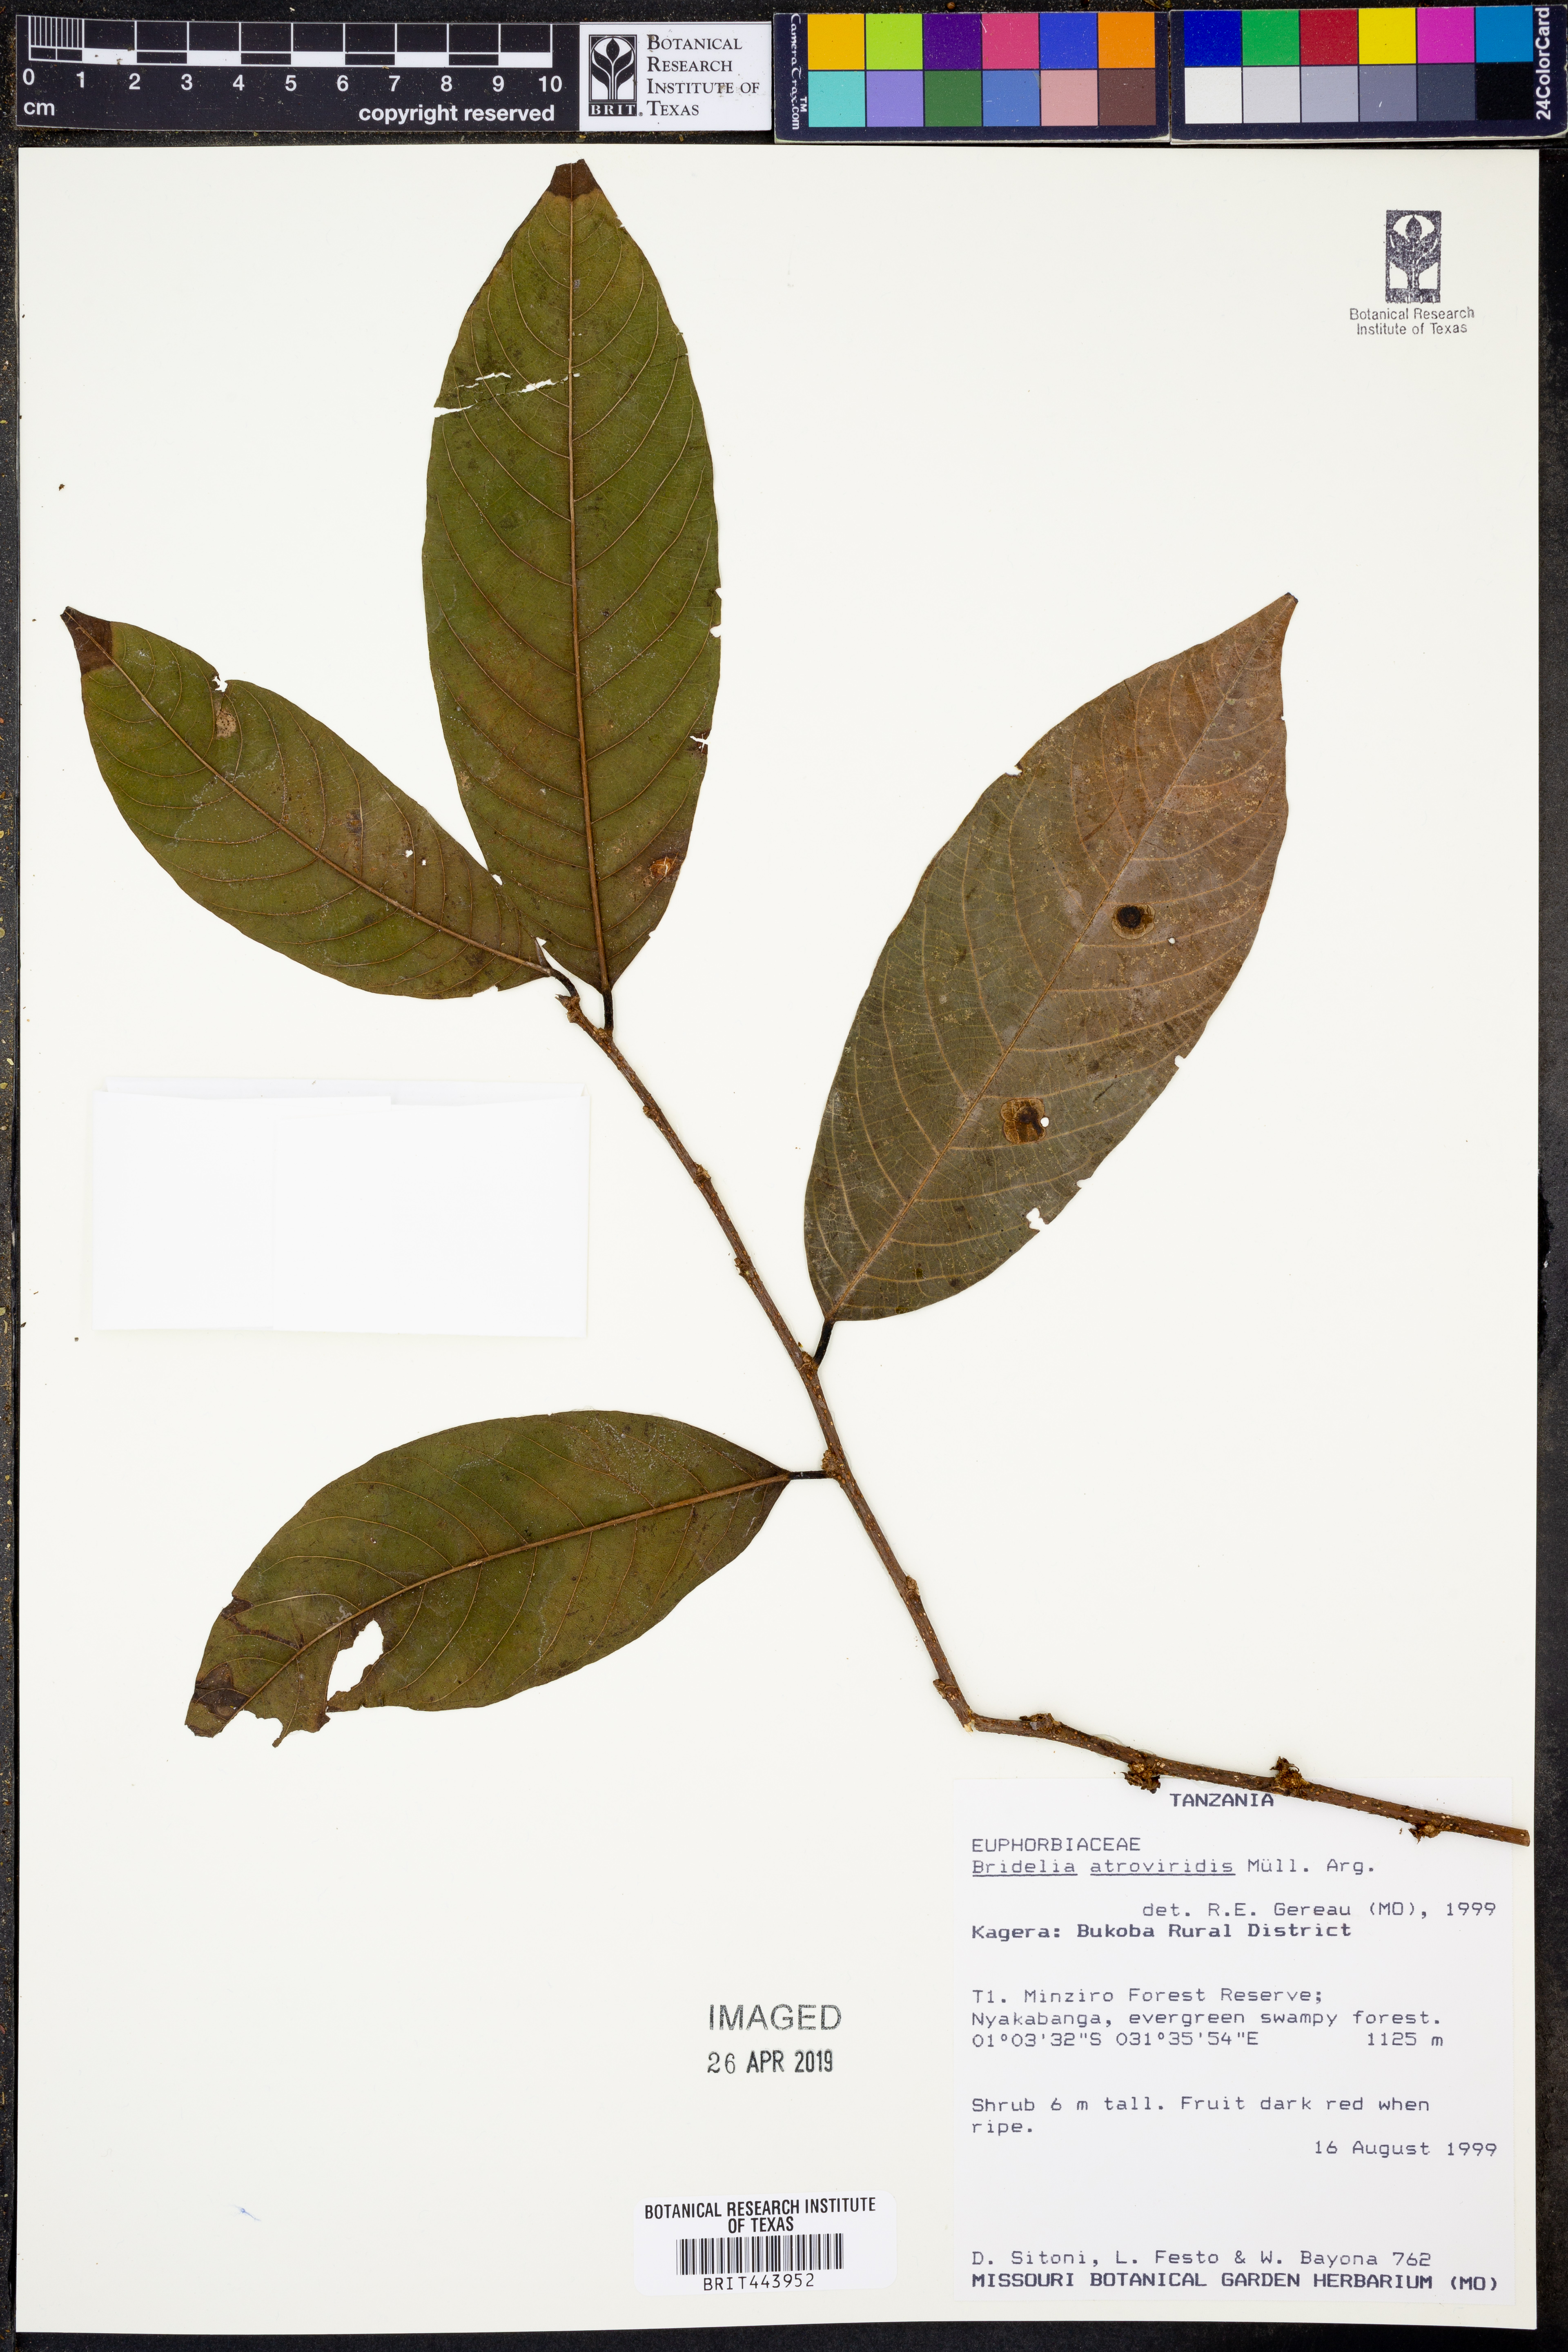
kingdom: Plantae
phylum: Tracheophyta
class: Magnoliopsida
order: Malpighiales
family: Phyllanthaceae
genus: Bridelia
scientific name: Bridelia atroviridis
